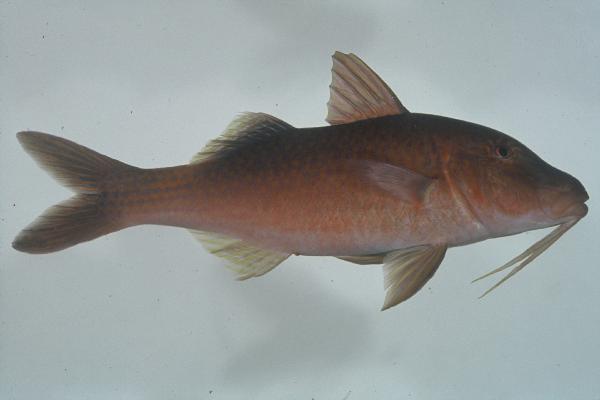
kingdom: Animalia
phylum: Chordata
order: Perciformes
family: Mullidae
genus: Parupeneus
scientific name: Parupeneus cyclostomus
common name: Goldsaddle goatfish
